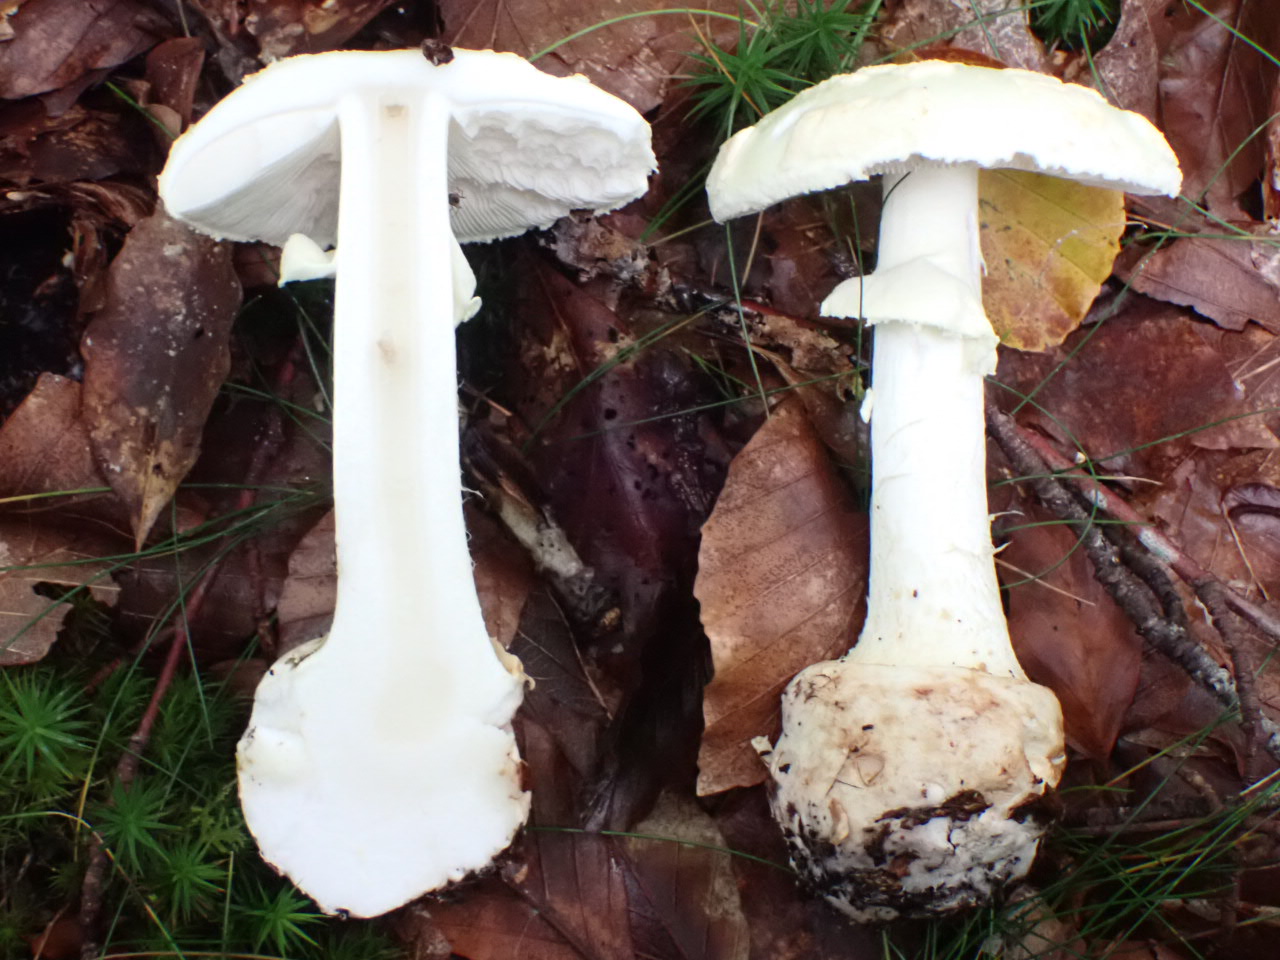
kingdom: Fungi
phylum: Basidiomycota
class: Agaricomycetes
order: Agaricales
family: Amanitaceae
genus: Amanita
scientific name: Amanita citrina
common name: kugleknoldet fluesvamp
